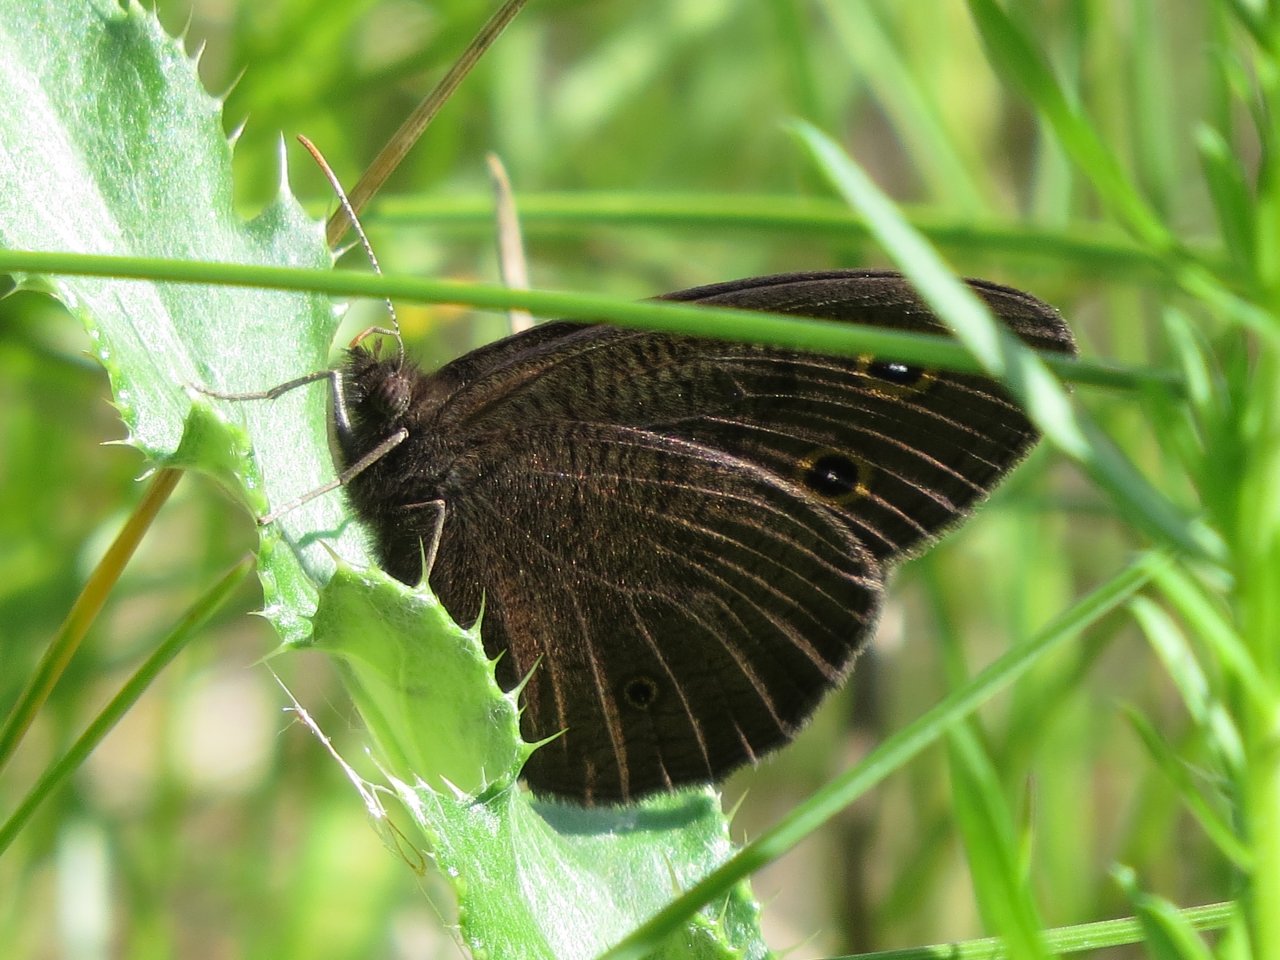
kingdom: Animalia
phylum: Arthropoda
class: Insecta
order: Lepidoptera
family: Nymphalidae
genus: Cercyonis
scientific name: Cercyonis pegala
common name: Common Wood-Nymph
